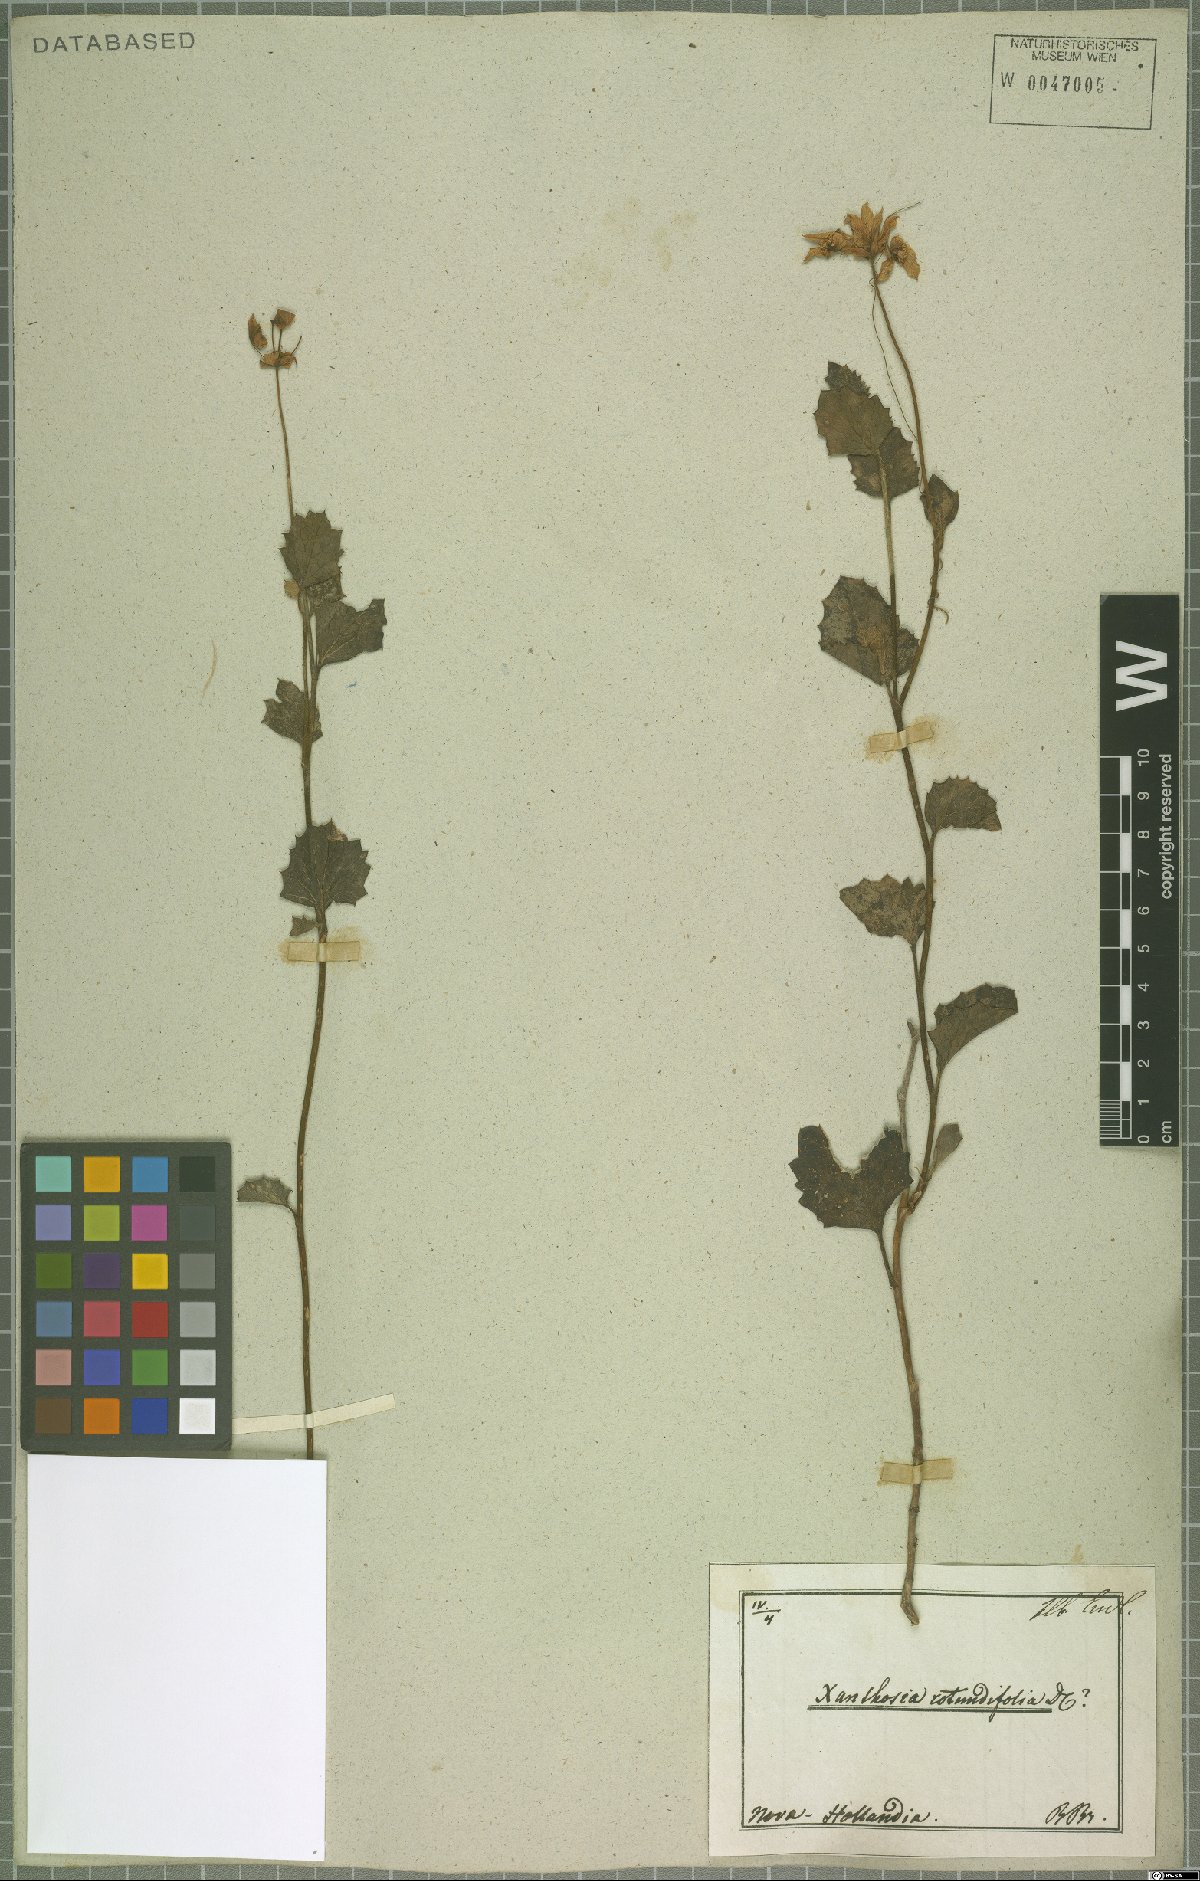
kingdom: Plantae
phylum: Tracheophyta
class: Magnoliopsida
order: Apiales
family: Apiaceae
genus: Xanthosia
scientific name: Xanthosia rotundifolia
